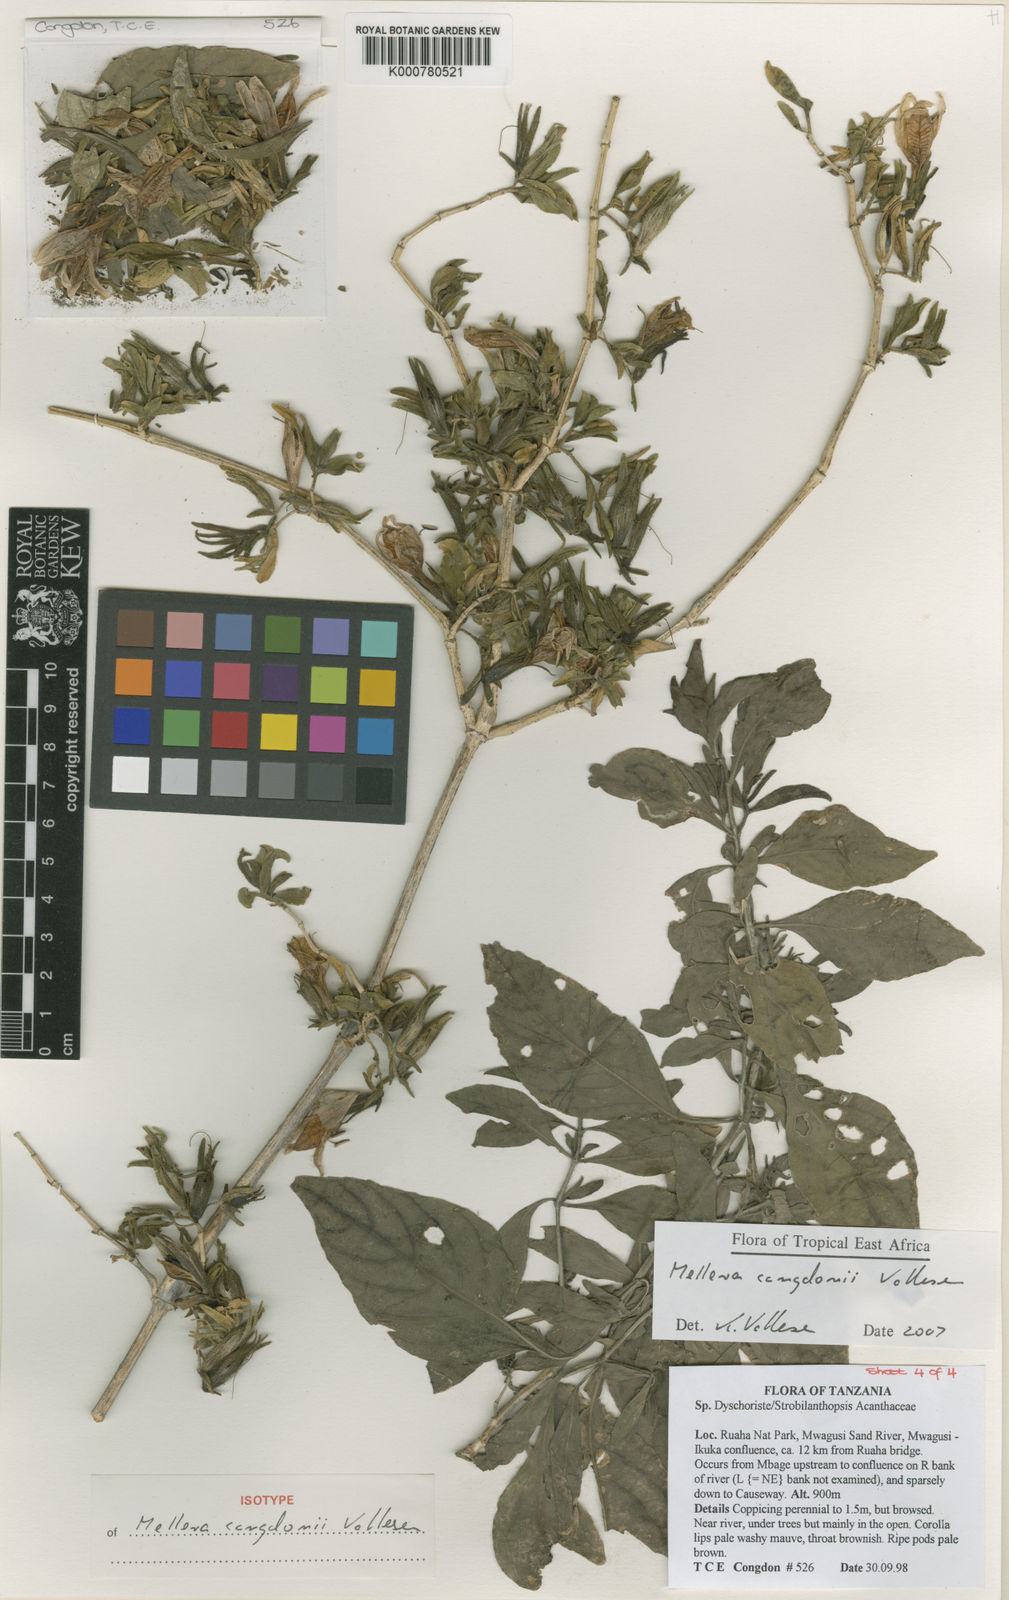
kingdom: Plantae
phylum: Tracheophyta
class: Magnoliopsida
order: Lamiales
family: Acanthaceae
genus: Mellera
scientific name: Mellera congdonii
